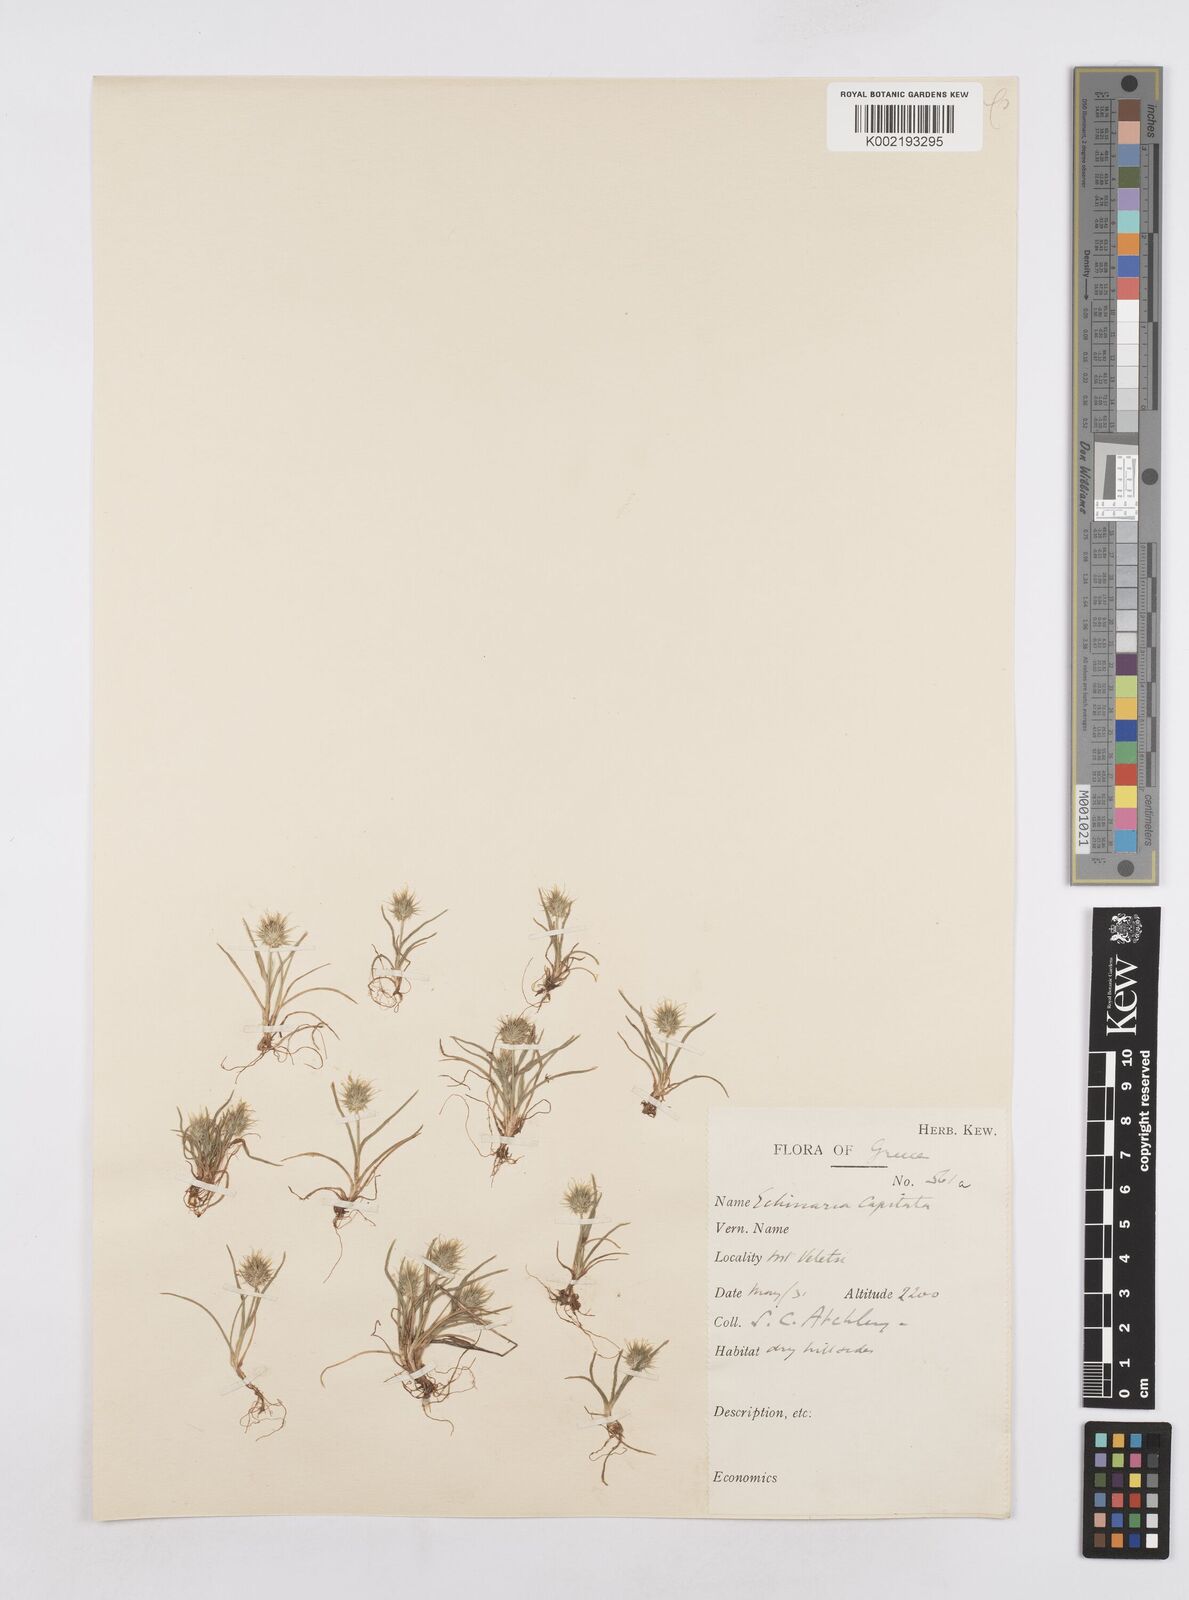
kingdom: Plantae
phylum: Tracheophyta
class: Liliopsida
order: Poales
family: Poaceae
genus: Echinaria
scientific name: Echinaria capitata
